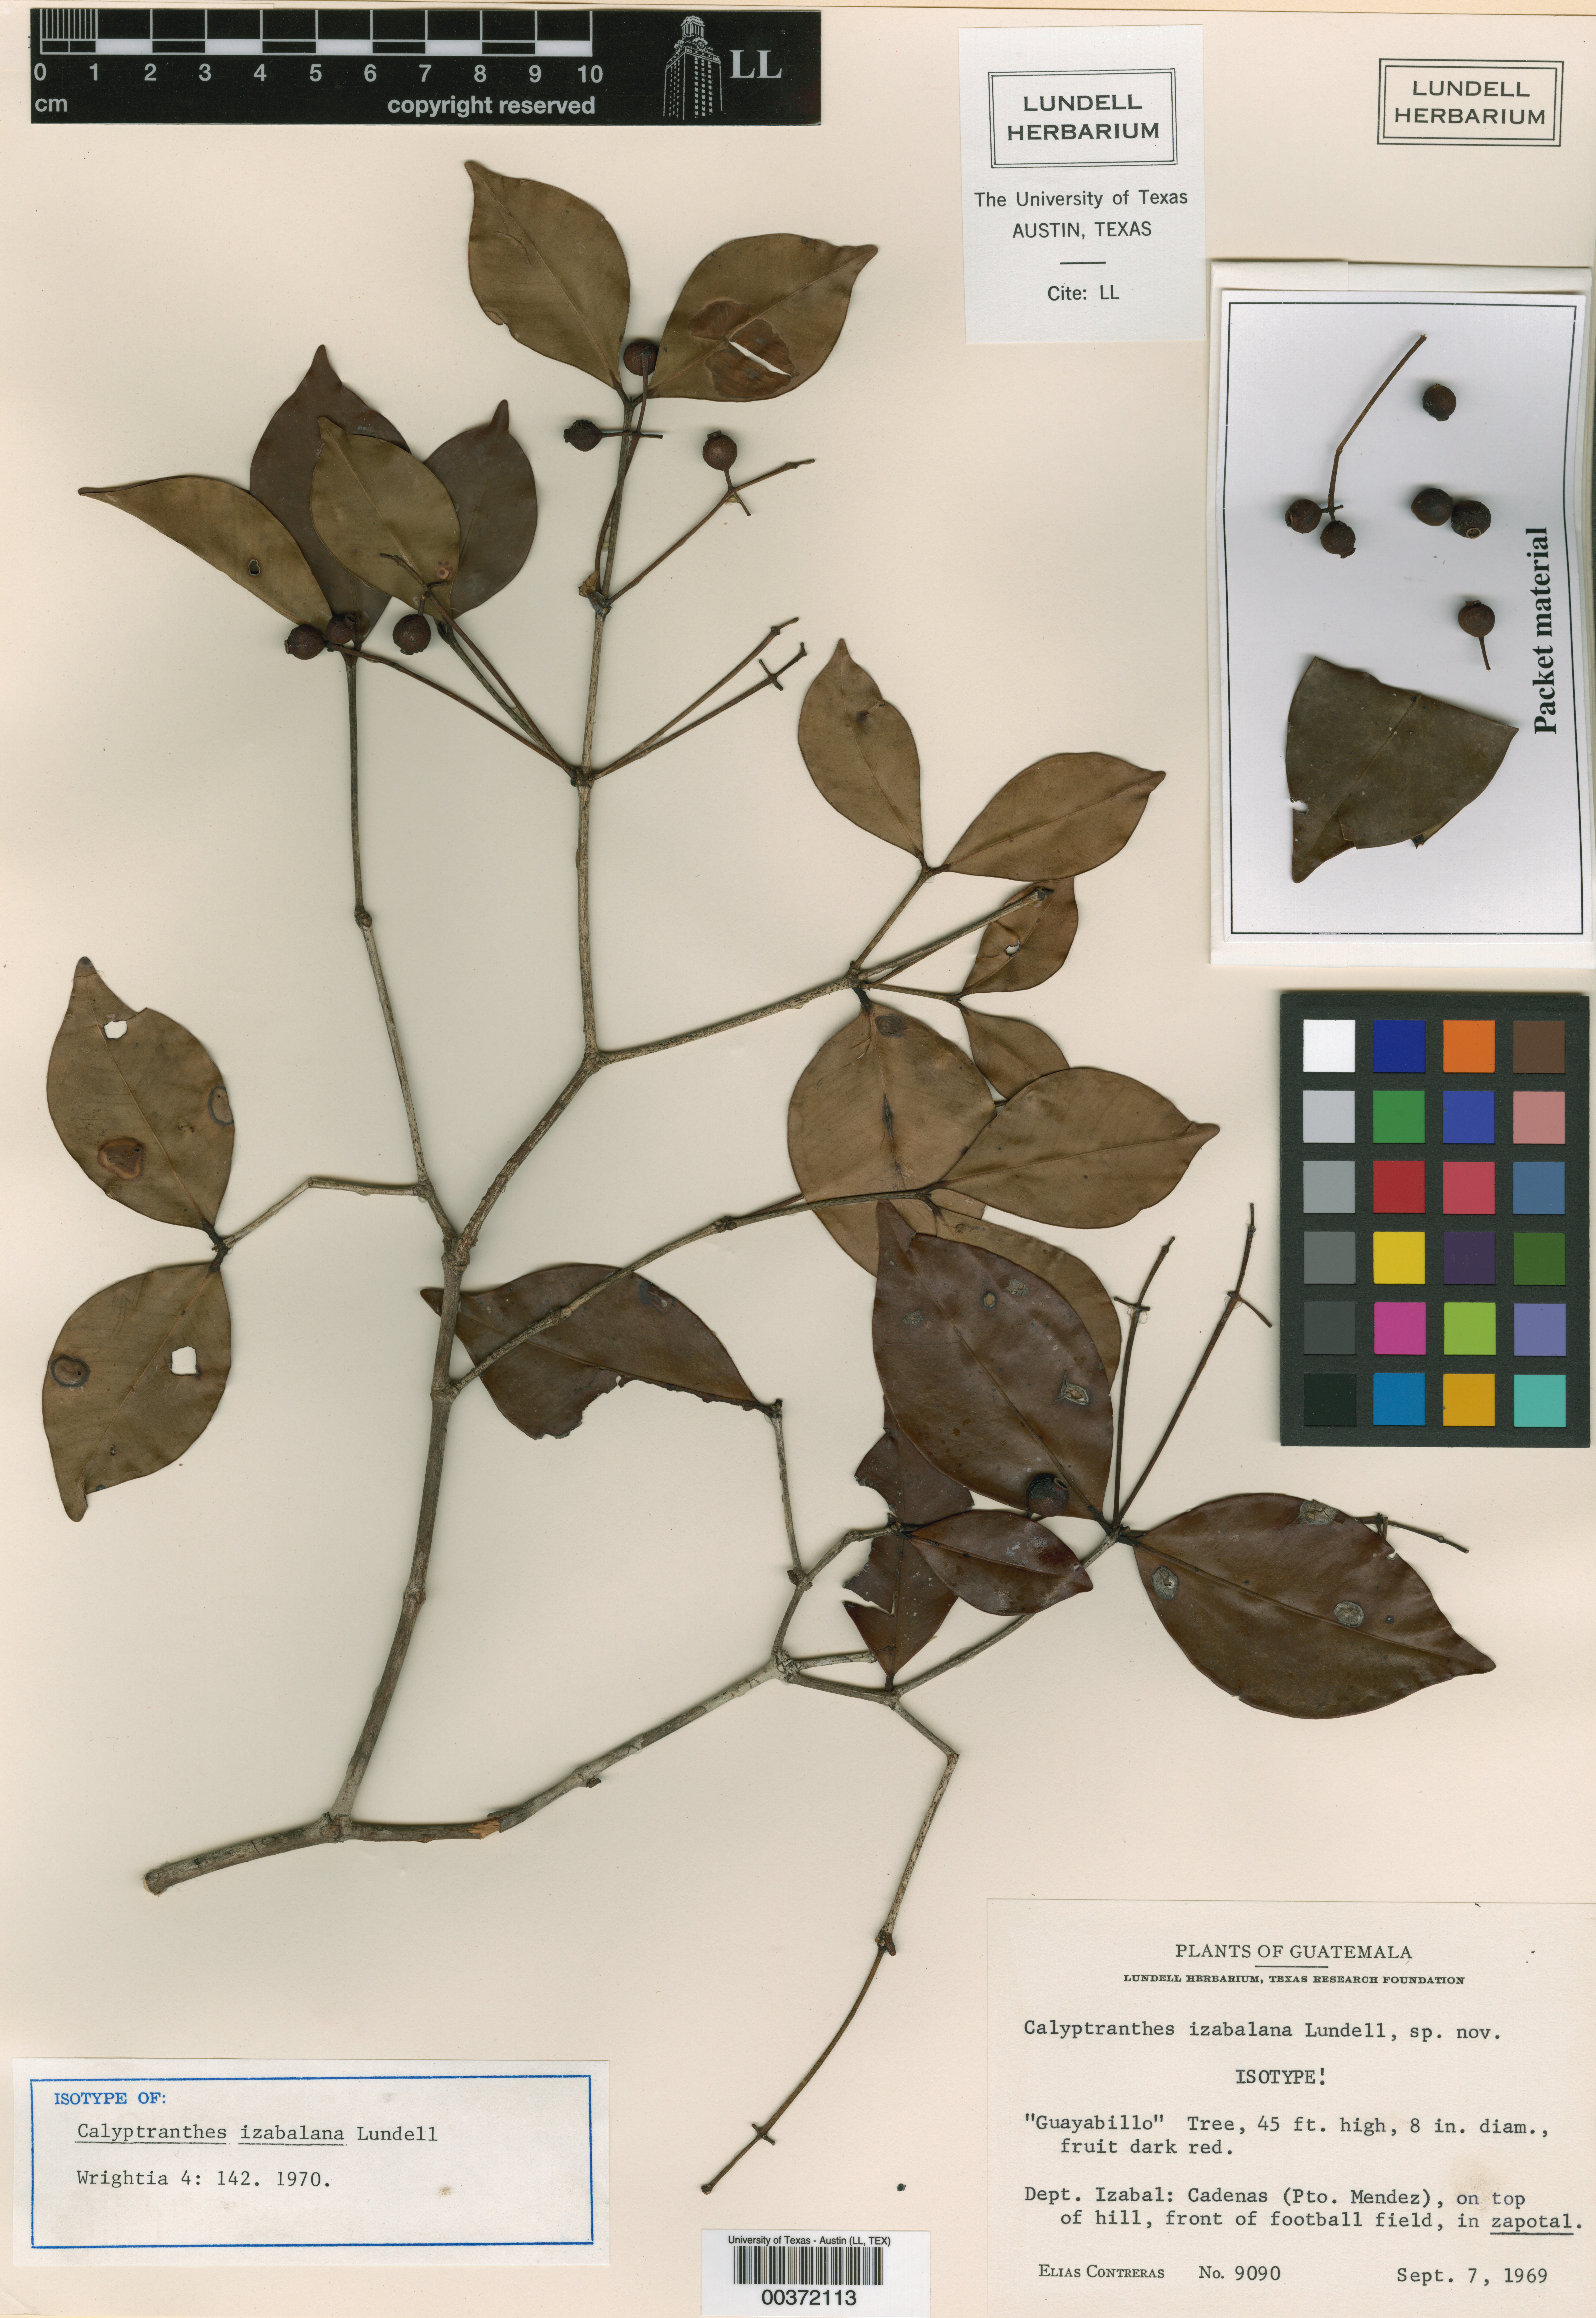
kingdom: Plantae
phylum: Tracheophyta
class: Magnoliopsida
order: Myrtales
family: Myrtaceae
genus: Myrcia
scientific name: Myrcia izabalana
